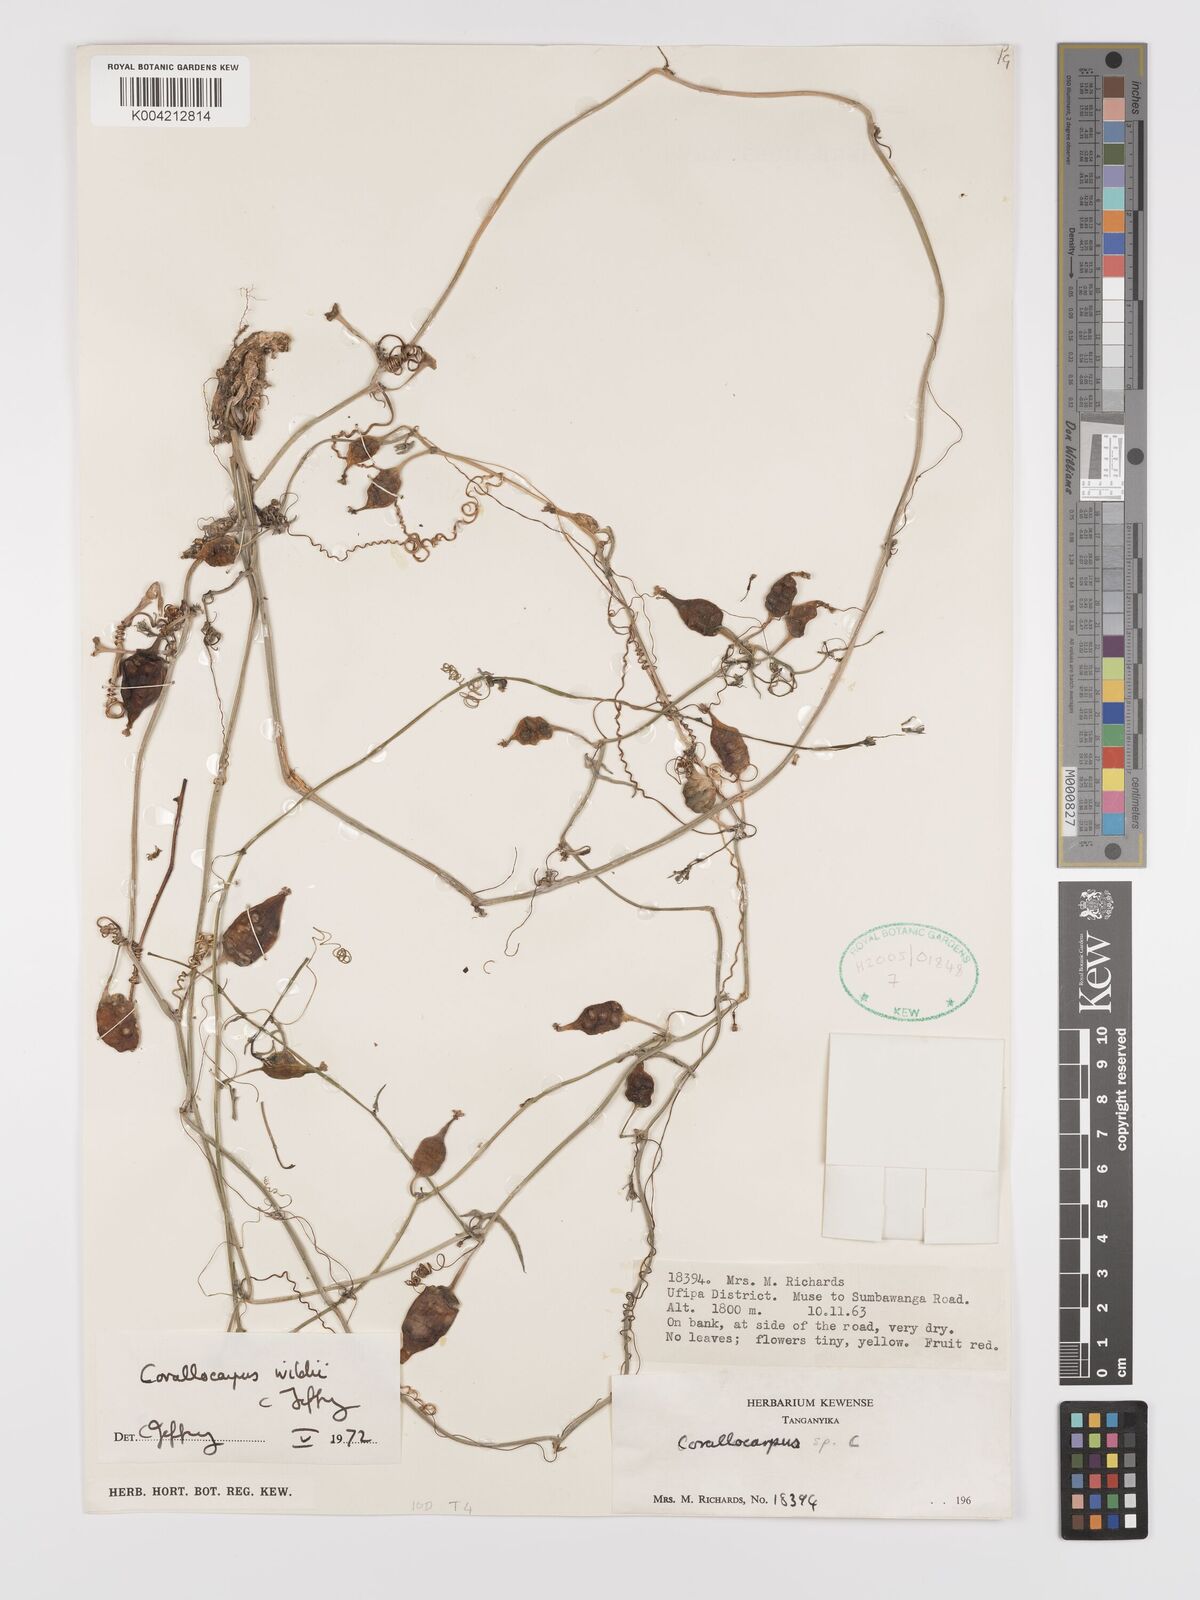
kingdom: Plantae
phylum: Tracheophyta
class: Magnoliopsida
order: Cucurbitales
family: Cucurbitaceae
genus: Corallocarpus
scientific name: Corallocarpus tenuissimus
